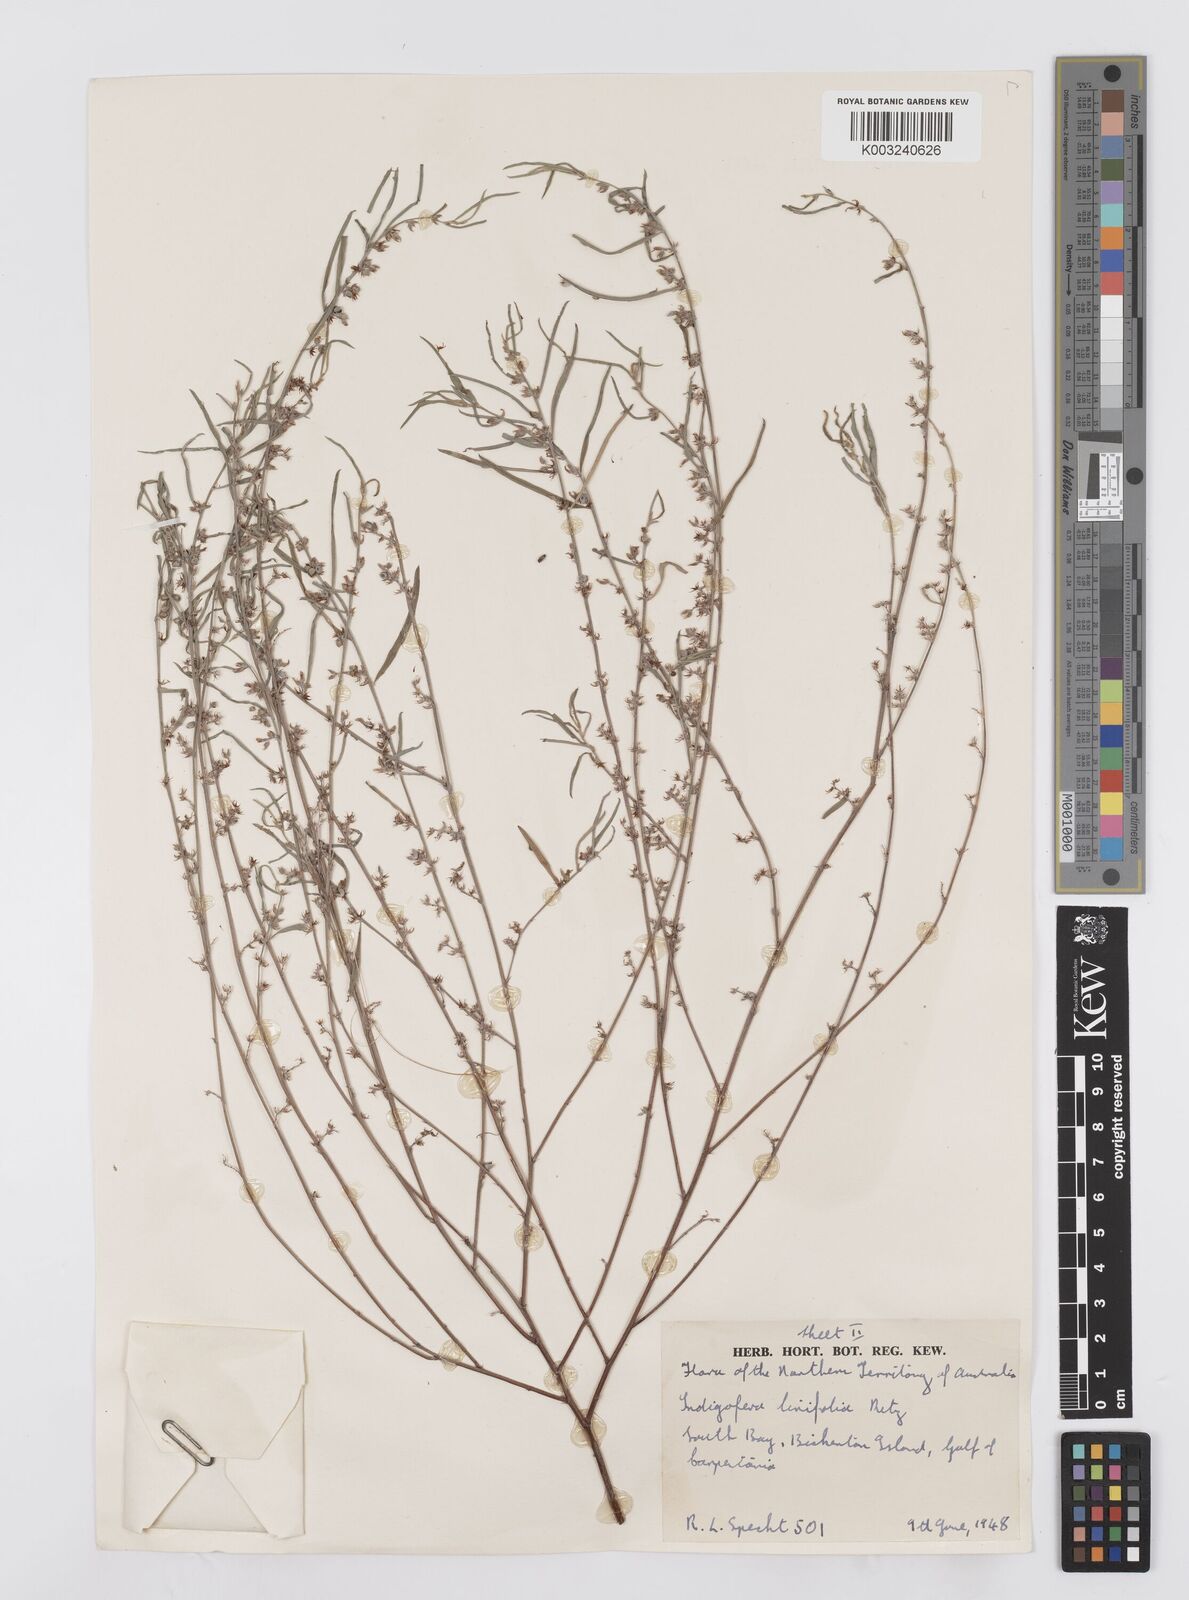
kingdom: Plantae
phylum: Tracheophyta
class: Magnoliopsida
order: Fabales
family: Fabaceae
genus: Indigofera
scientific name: Indigofera linifolia
